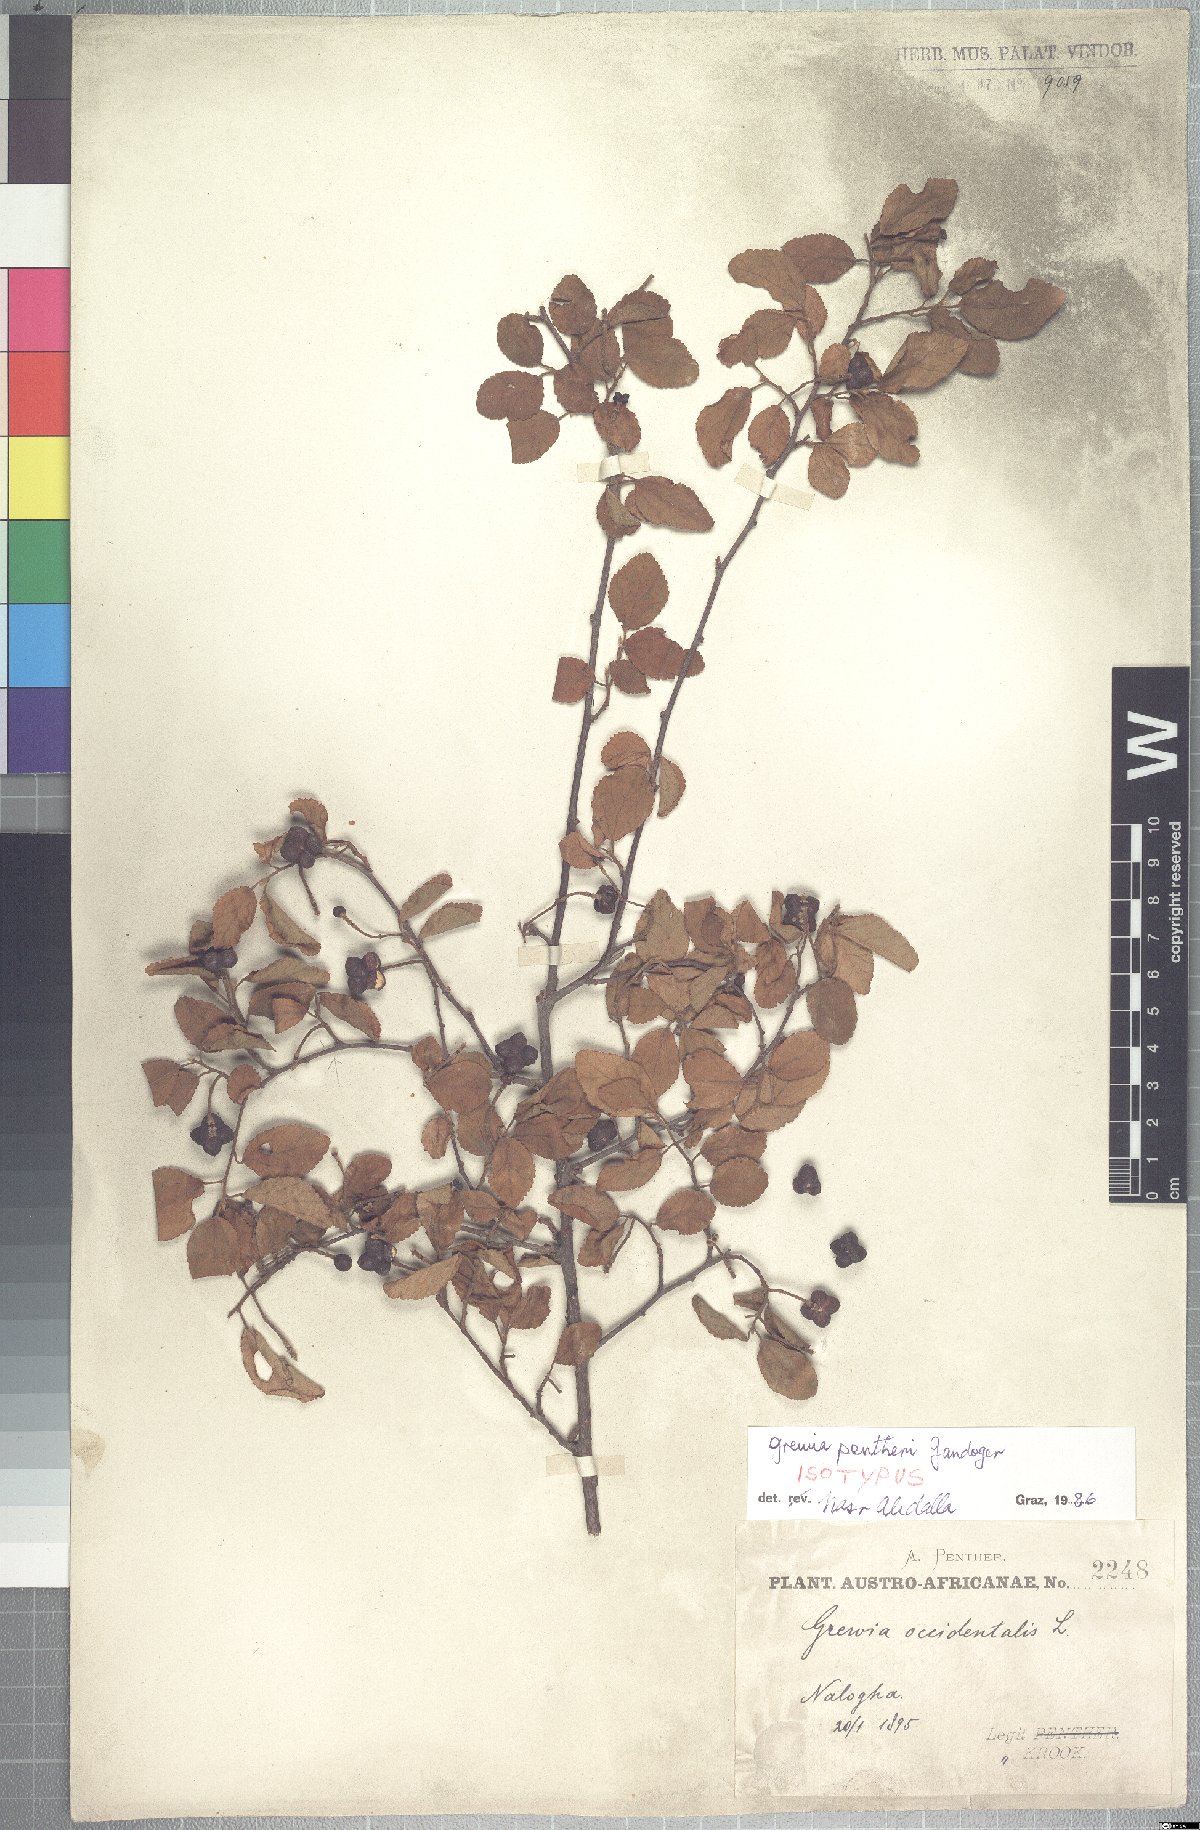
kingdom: Plantae
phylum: Tracheophyta
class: Magnoliopsida
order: Malvales
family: Malvaceae
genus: Grewia
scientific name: Grewia pentheri
